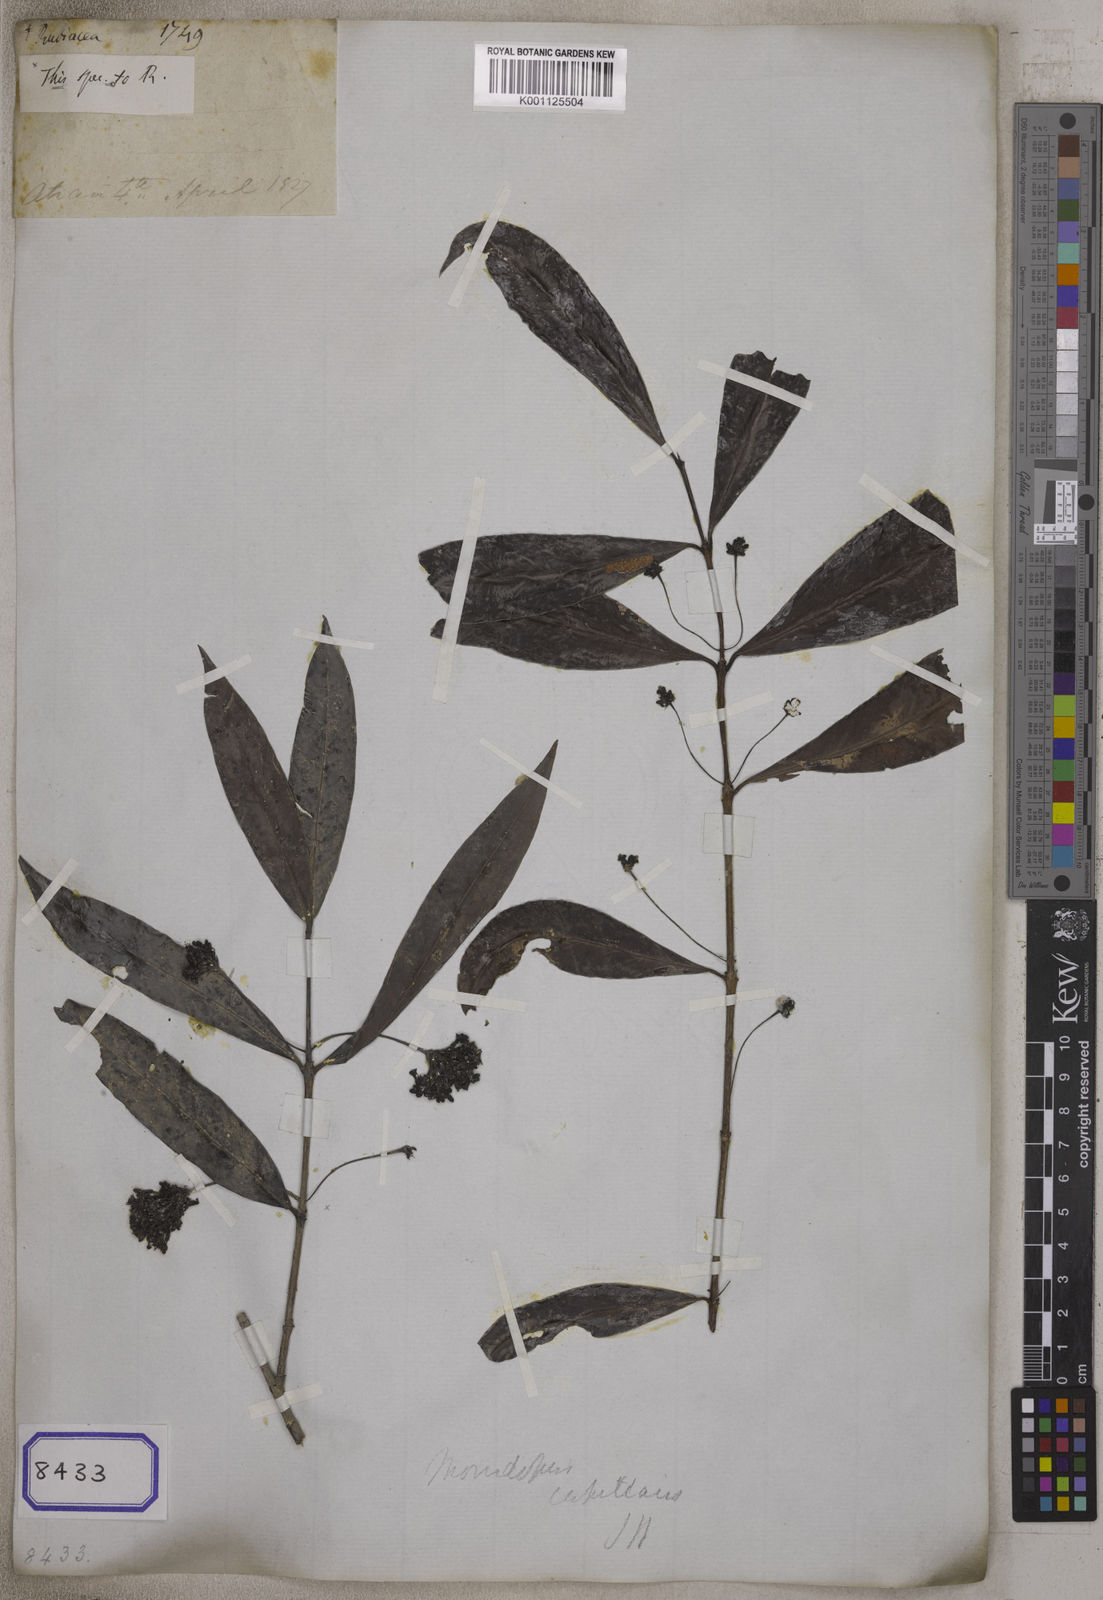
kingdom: Plantae
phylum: Tracheophyta
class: Magnoliopsida
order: Gentianales
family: Rubiaceae
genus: Morindopsis
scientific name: Morindopsis capillaris
